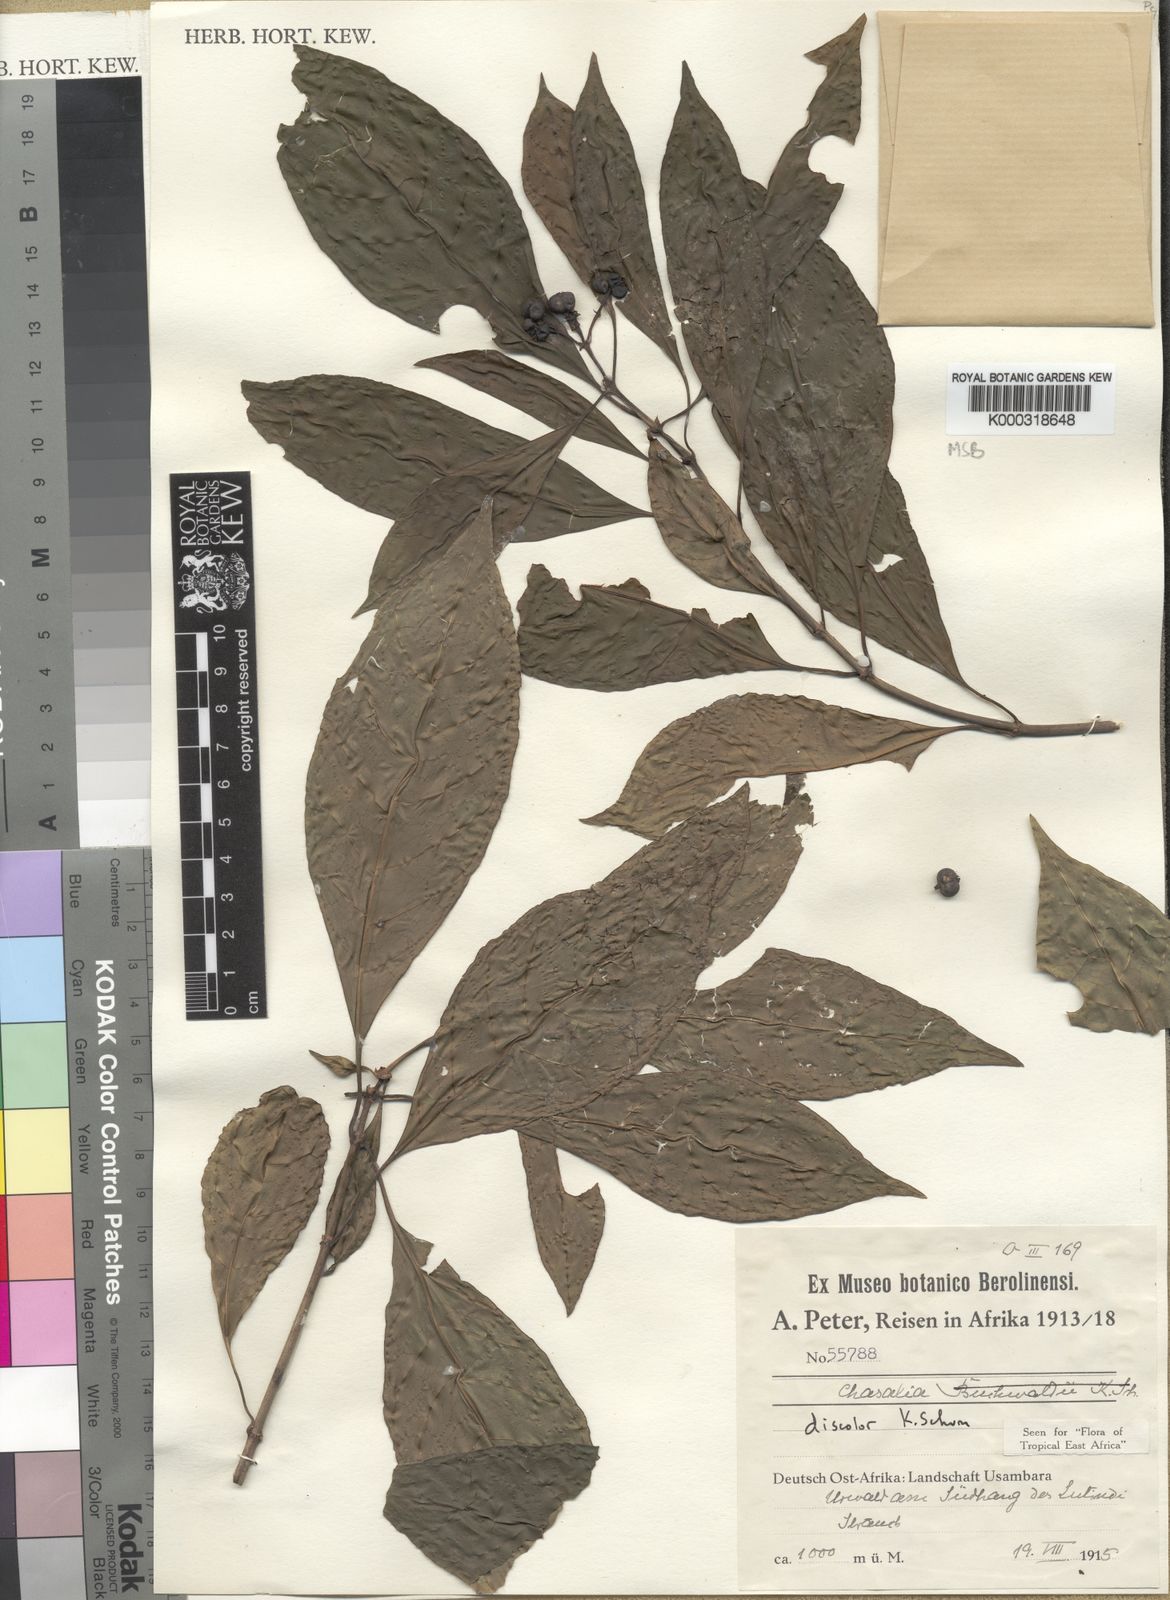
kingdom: Plantae
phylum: Tracheophyta
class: Magnoliopsida
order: Gentianales
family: Rubiaceae
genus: Chassalia
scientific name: Chassalia discolor
